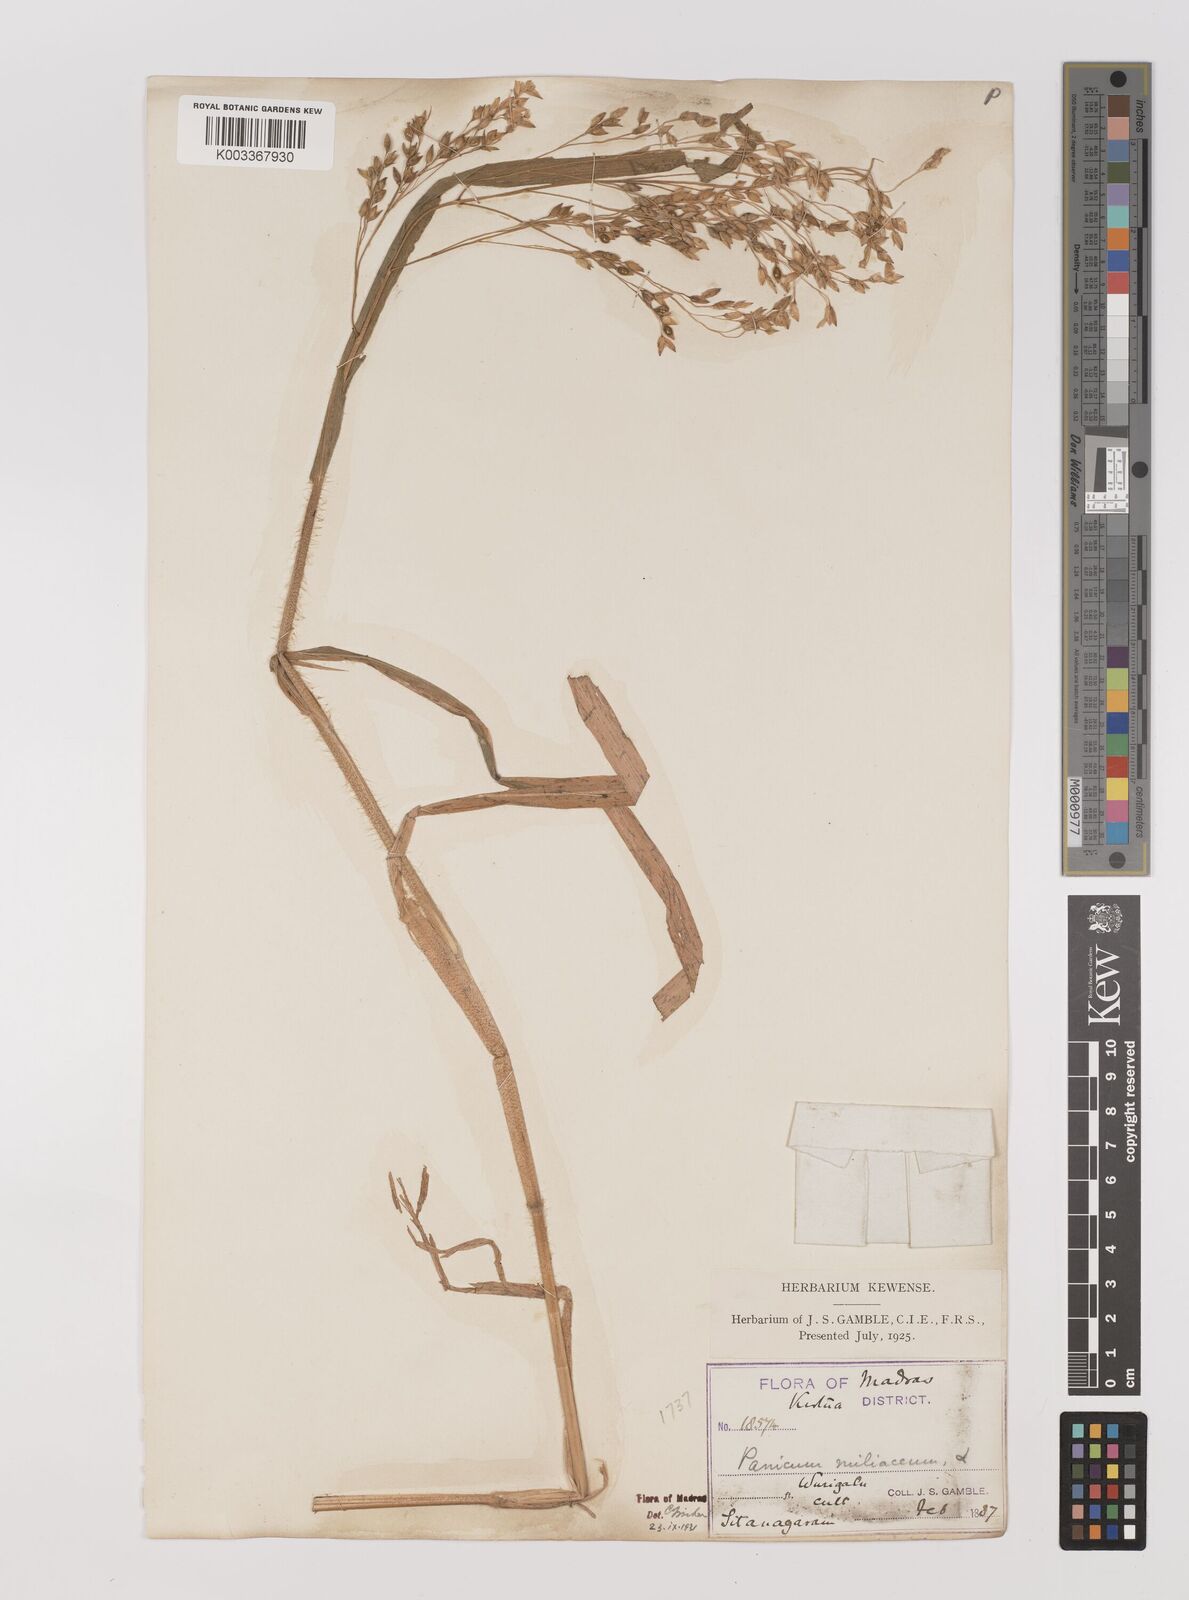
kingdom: Plantae
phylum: Tracheophyta
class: Liliopsida
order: Poales
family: Poaceae
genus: Panicum
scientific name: Panicum miliaceum
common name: Common millet
